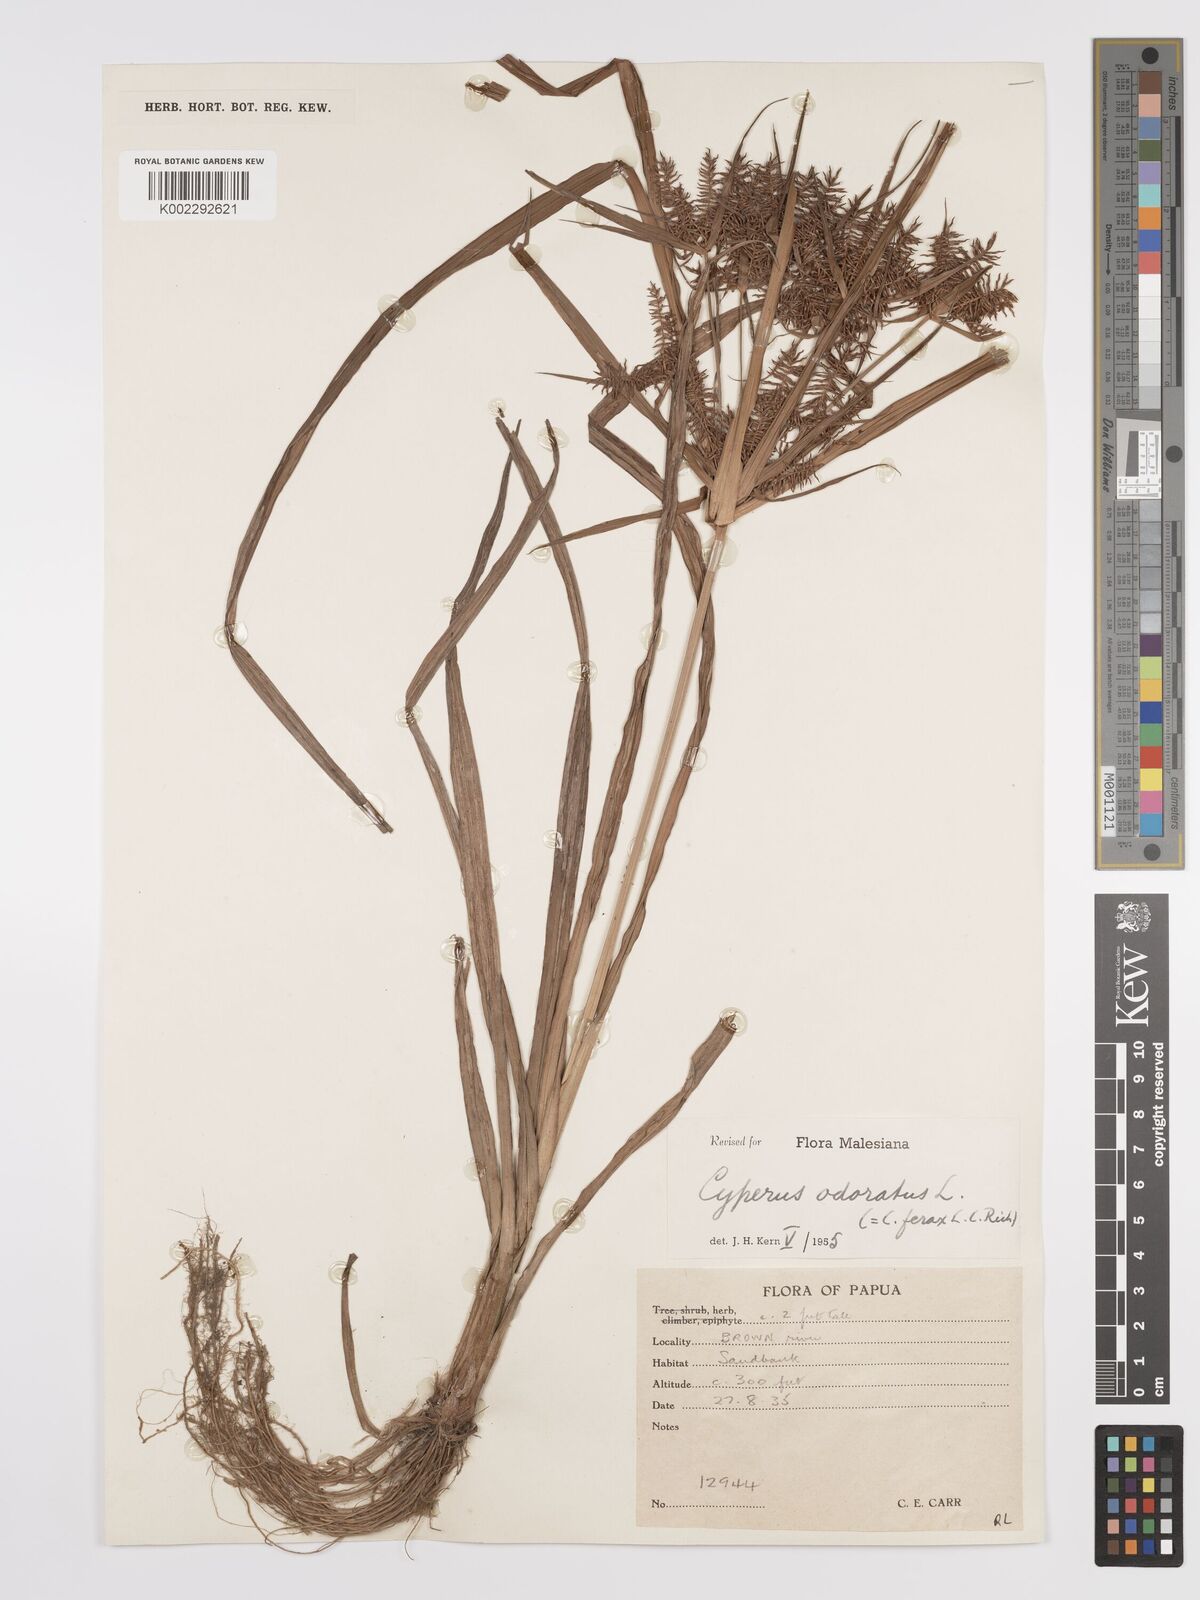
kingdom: Plantae
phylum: Tracheophyta
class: Liliopsida
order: Poales
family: Cyperaceae
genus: Cyperus
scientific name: Cyperus odoratus
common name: Fragrant flatsedge
